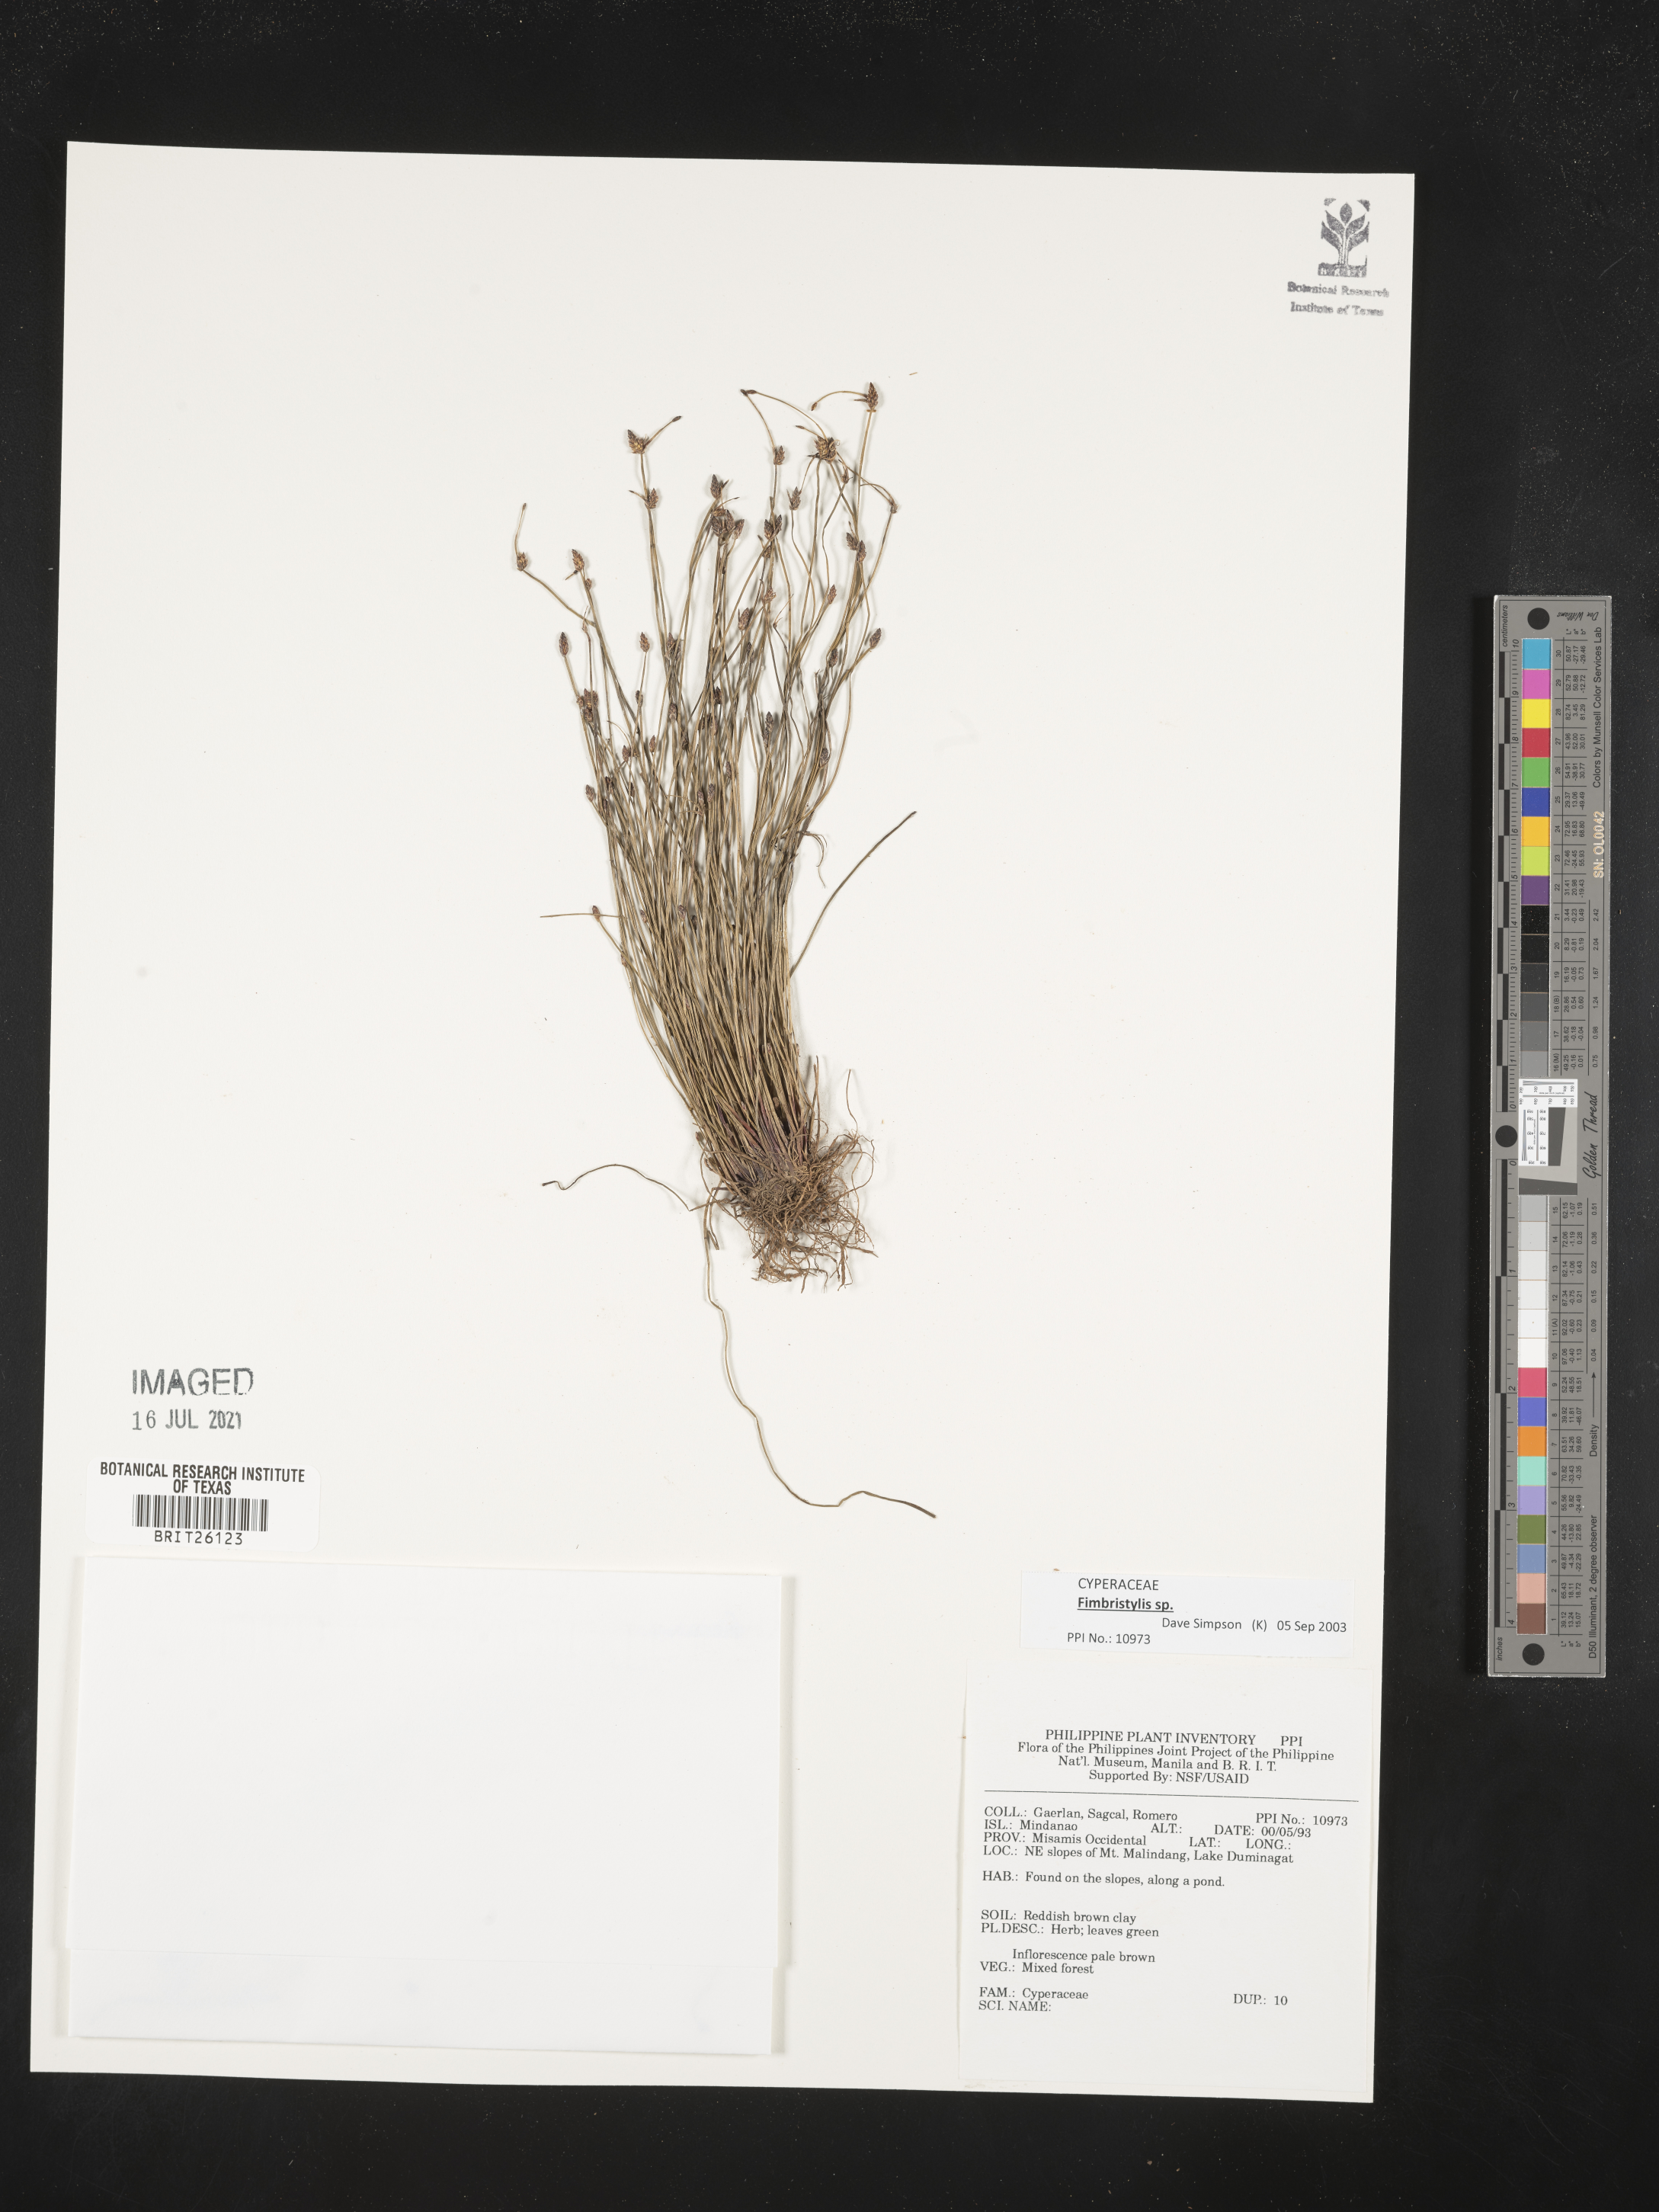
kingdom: Plantae
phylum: Tracheophyta
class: Liliopsida
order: Poales
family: Cyperaceae
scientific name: Cyperaceae
